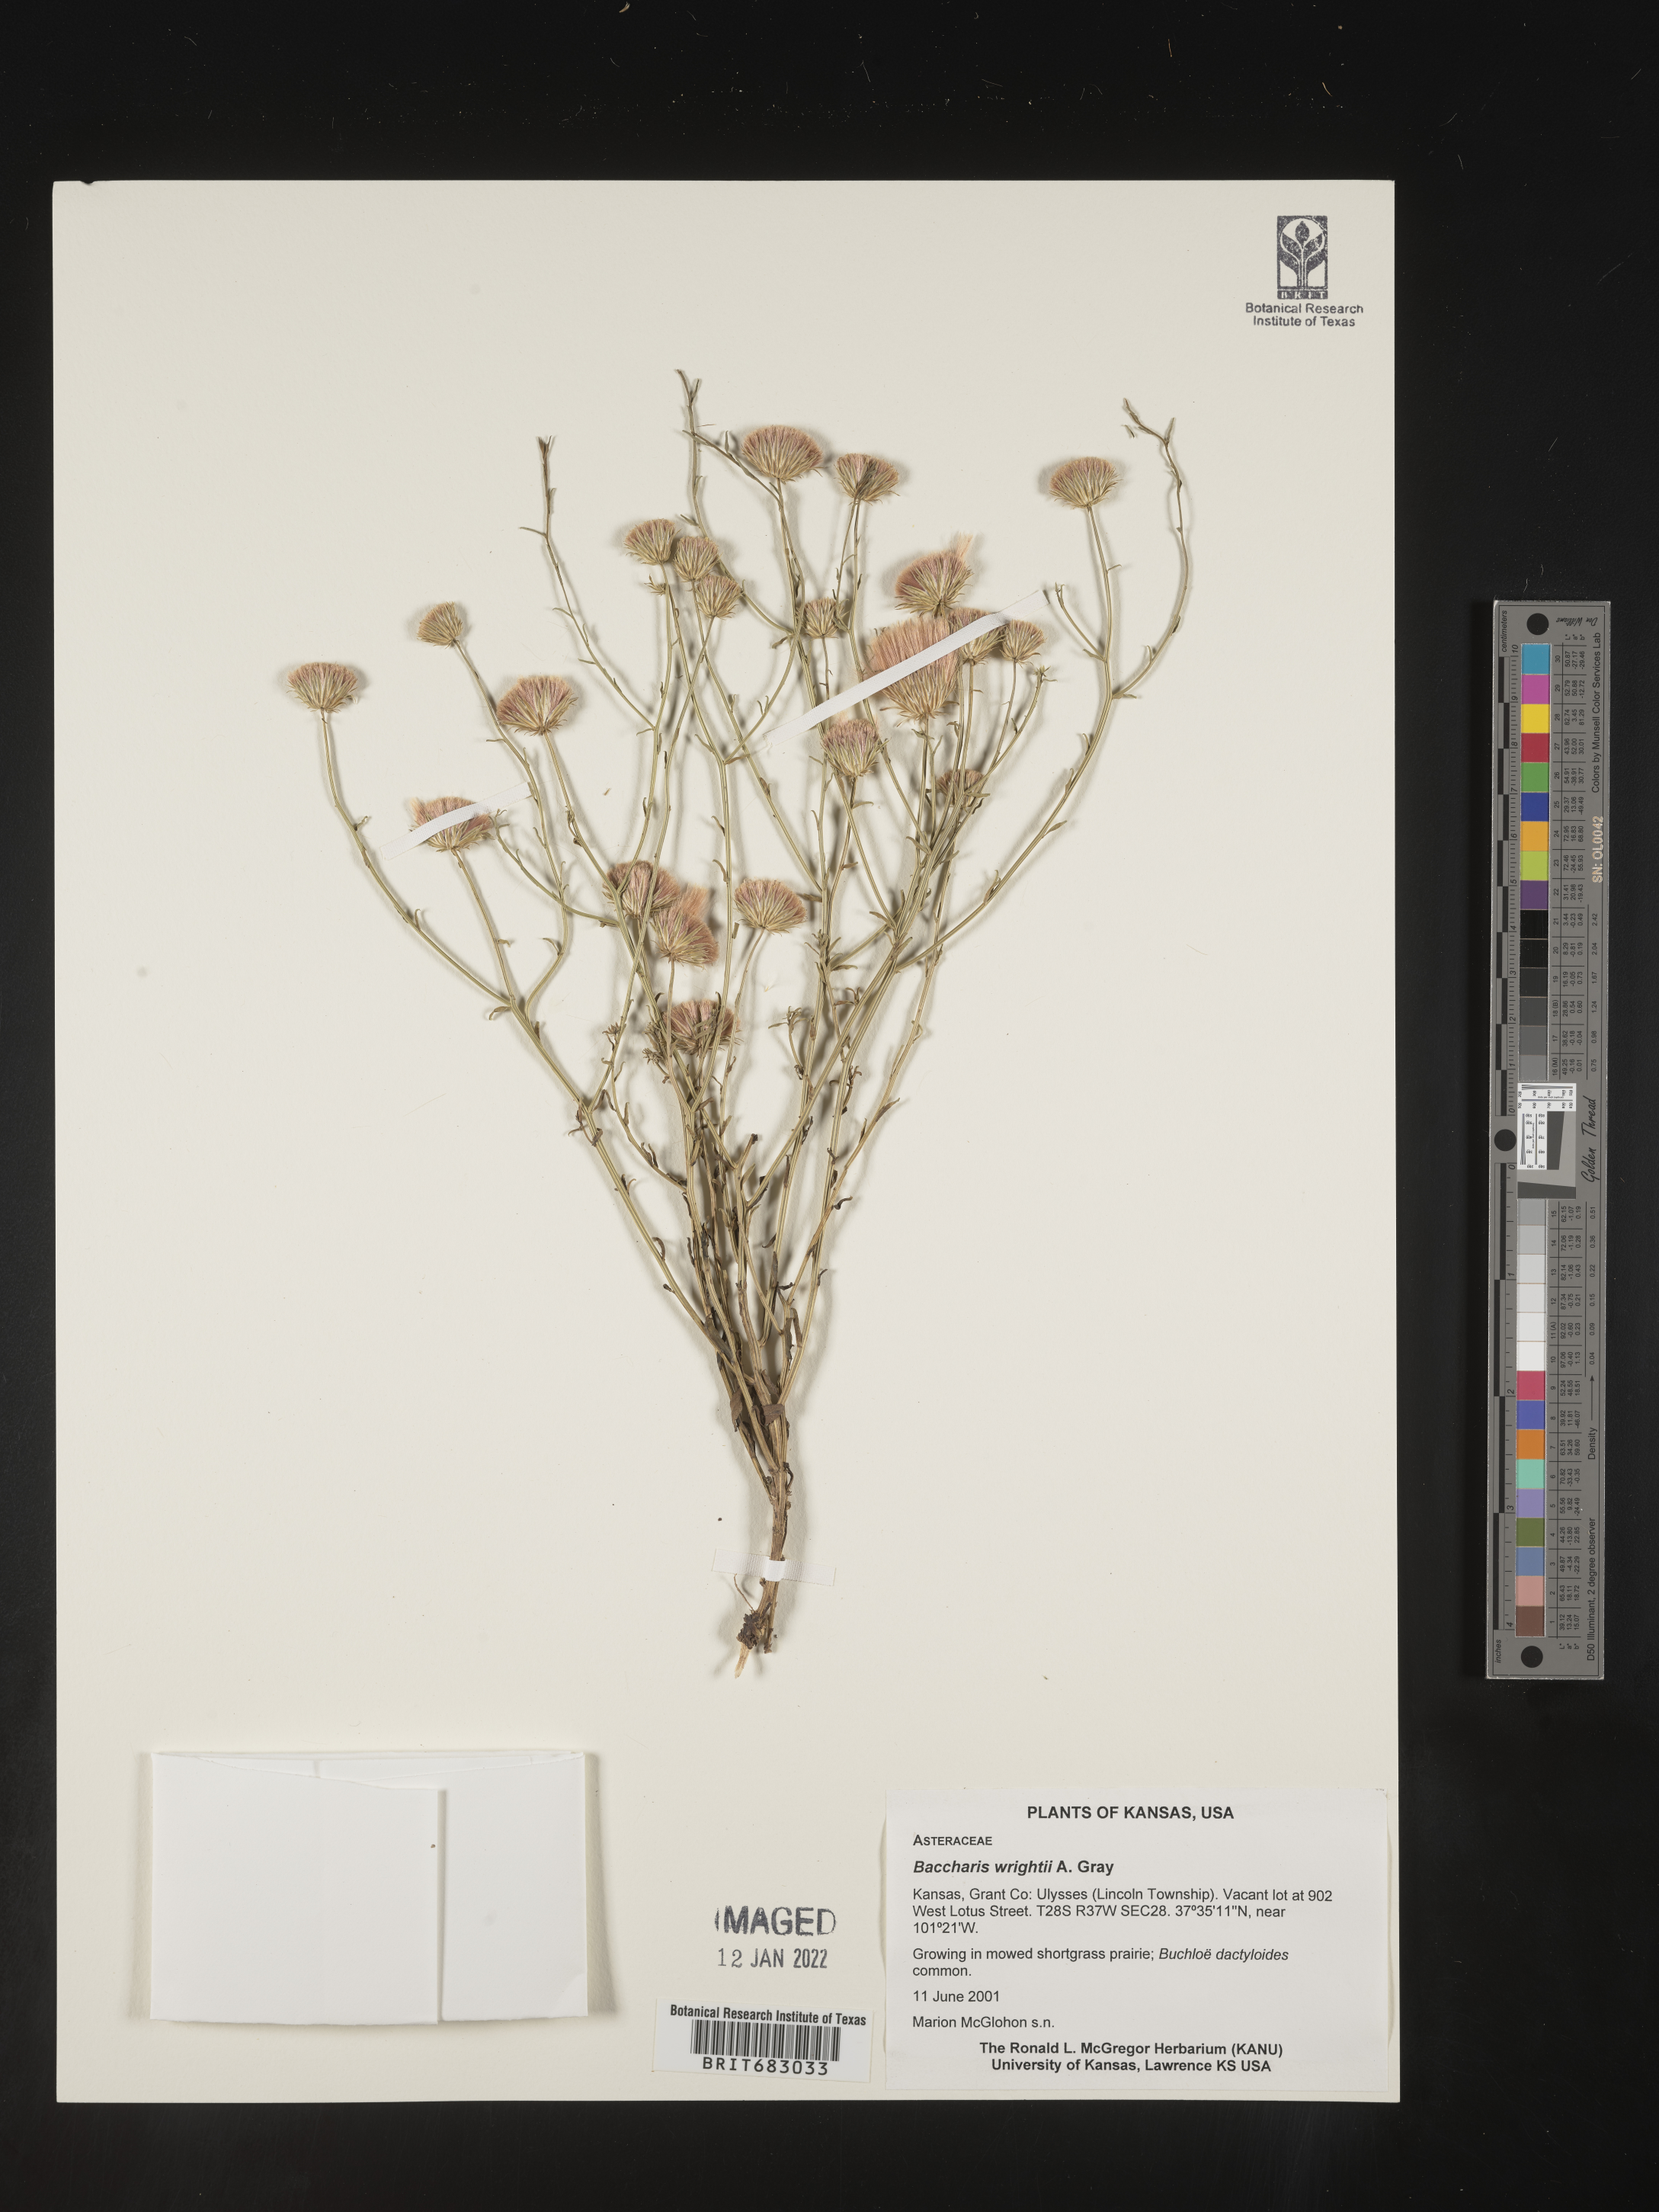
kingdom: Plantae
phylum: Tracheophyta
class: Magnoliopsida
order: Asterales
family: Asteraceae
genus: Baccharis
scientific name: Baccharis wrightii
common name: Wright's baccharis
